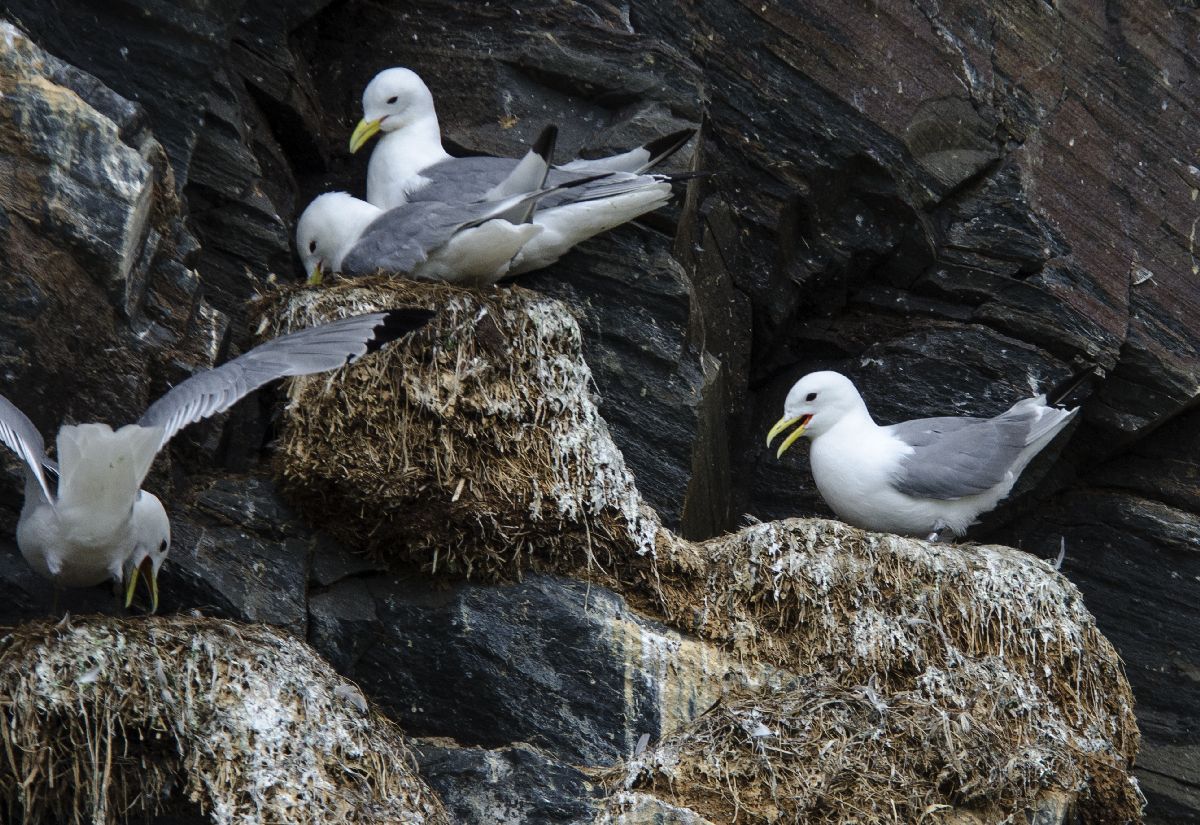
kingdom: Animalia
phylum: Chordata
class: Aves
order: Charadriiformes
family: Laridae
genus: Rissa
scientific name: Rissa tridactyla
